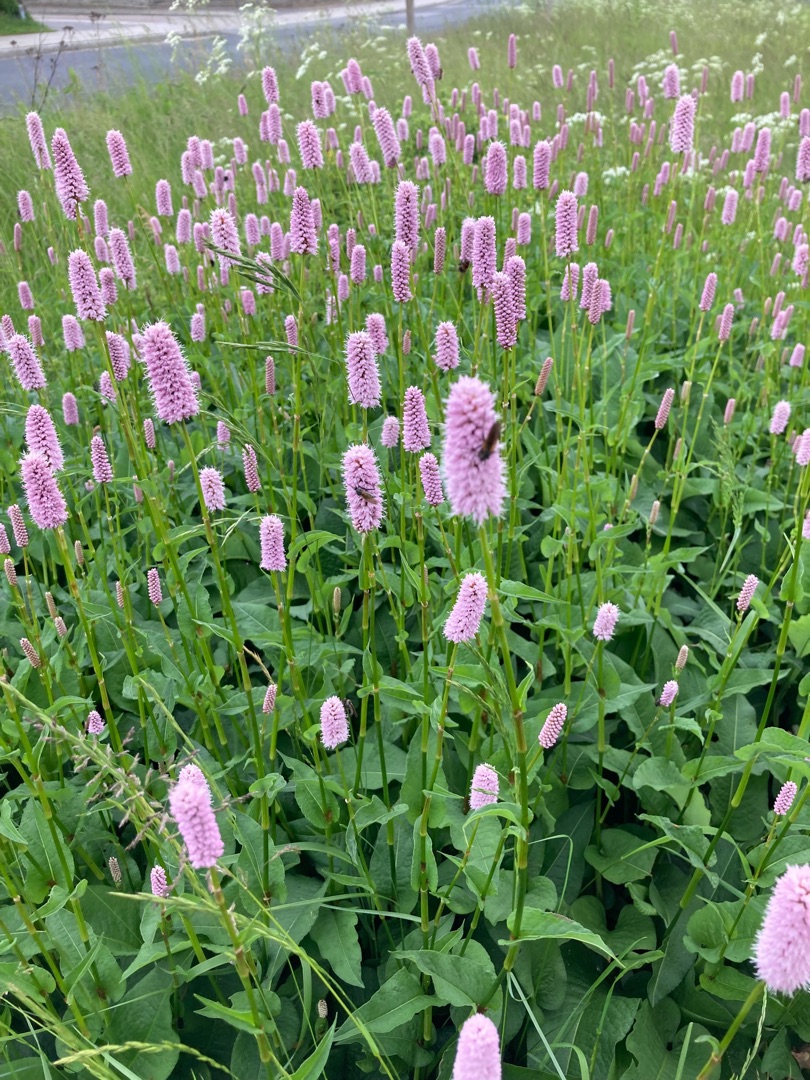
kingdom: Plantae
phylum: Tracheophyta
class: Magnoliopsida
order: Caryophyllales
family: Polygonaceae
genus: Bistorta
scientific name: Bistorta officinalis
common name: Slangeurt
